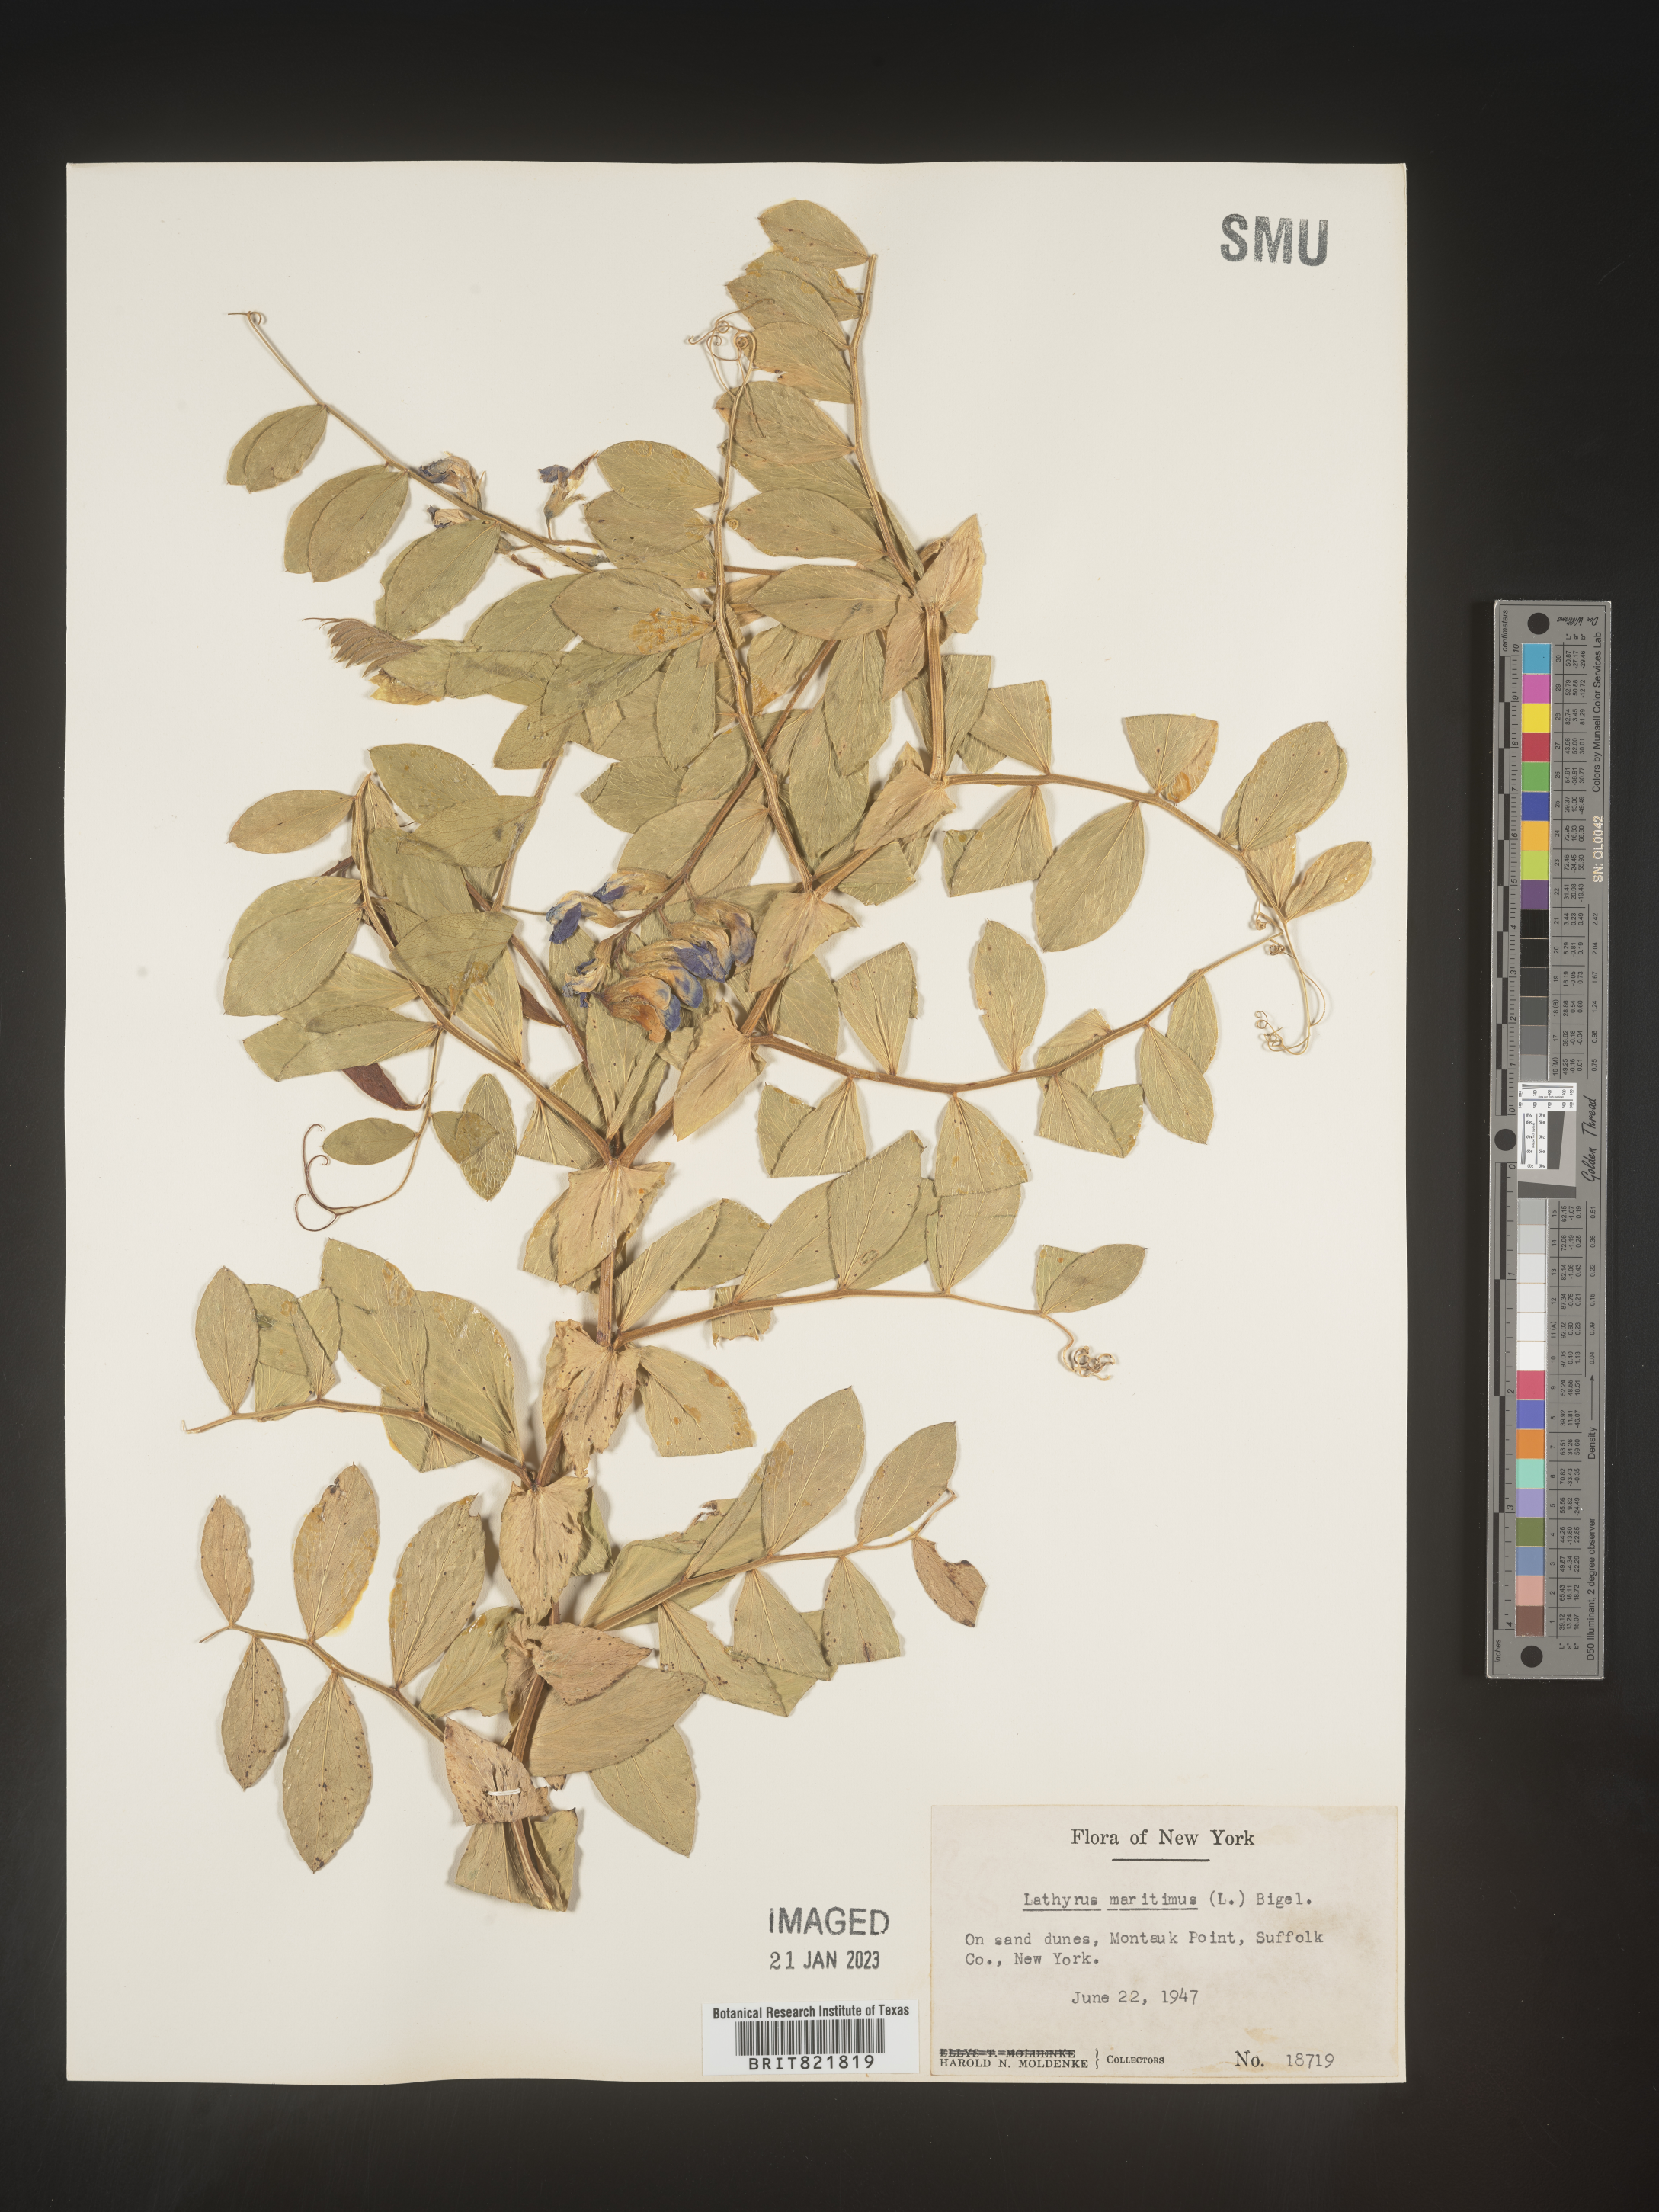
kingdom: Plantae
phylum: Tracheophyta
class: Magnoliopsida
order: Fabales
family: Fabaceae
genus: Lathyrus
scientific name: Lathyrus japonicus
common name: Sea pea
